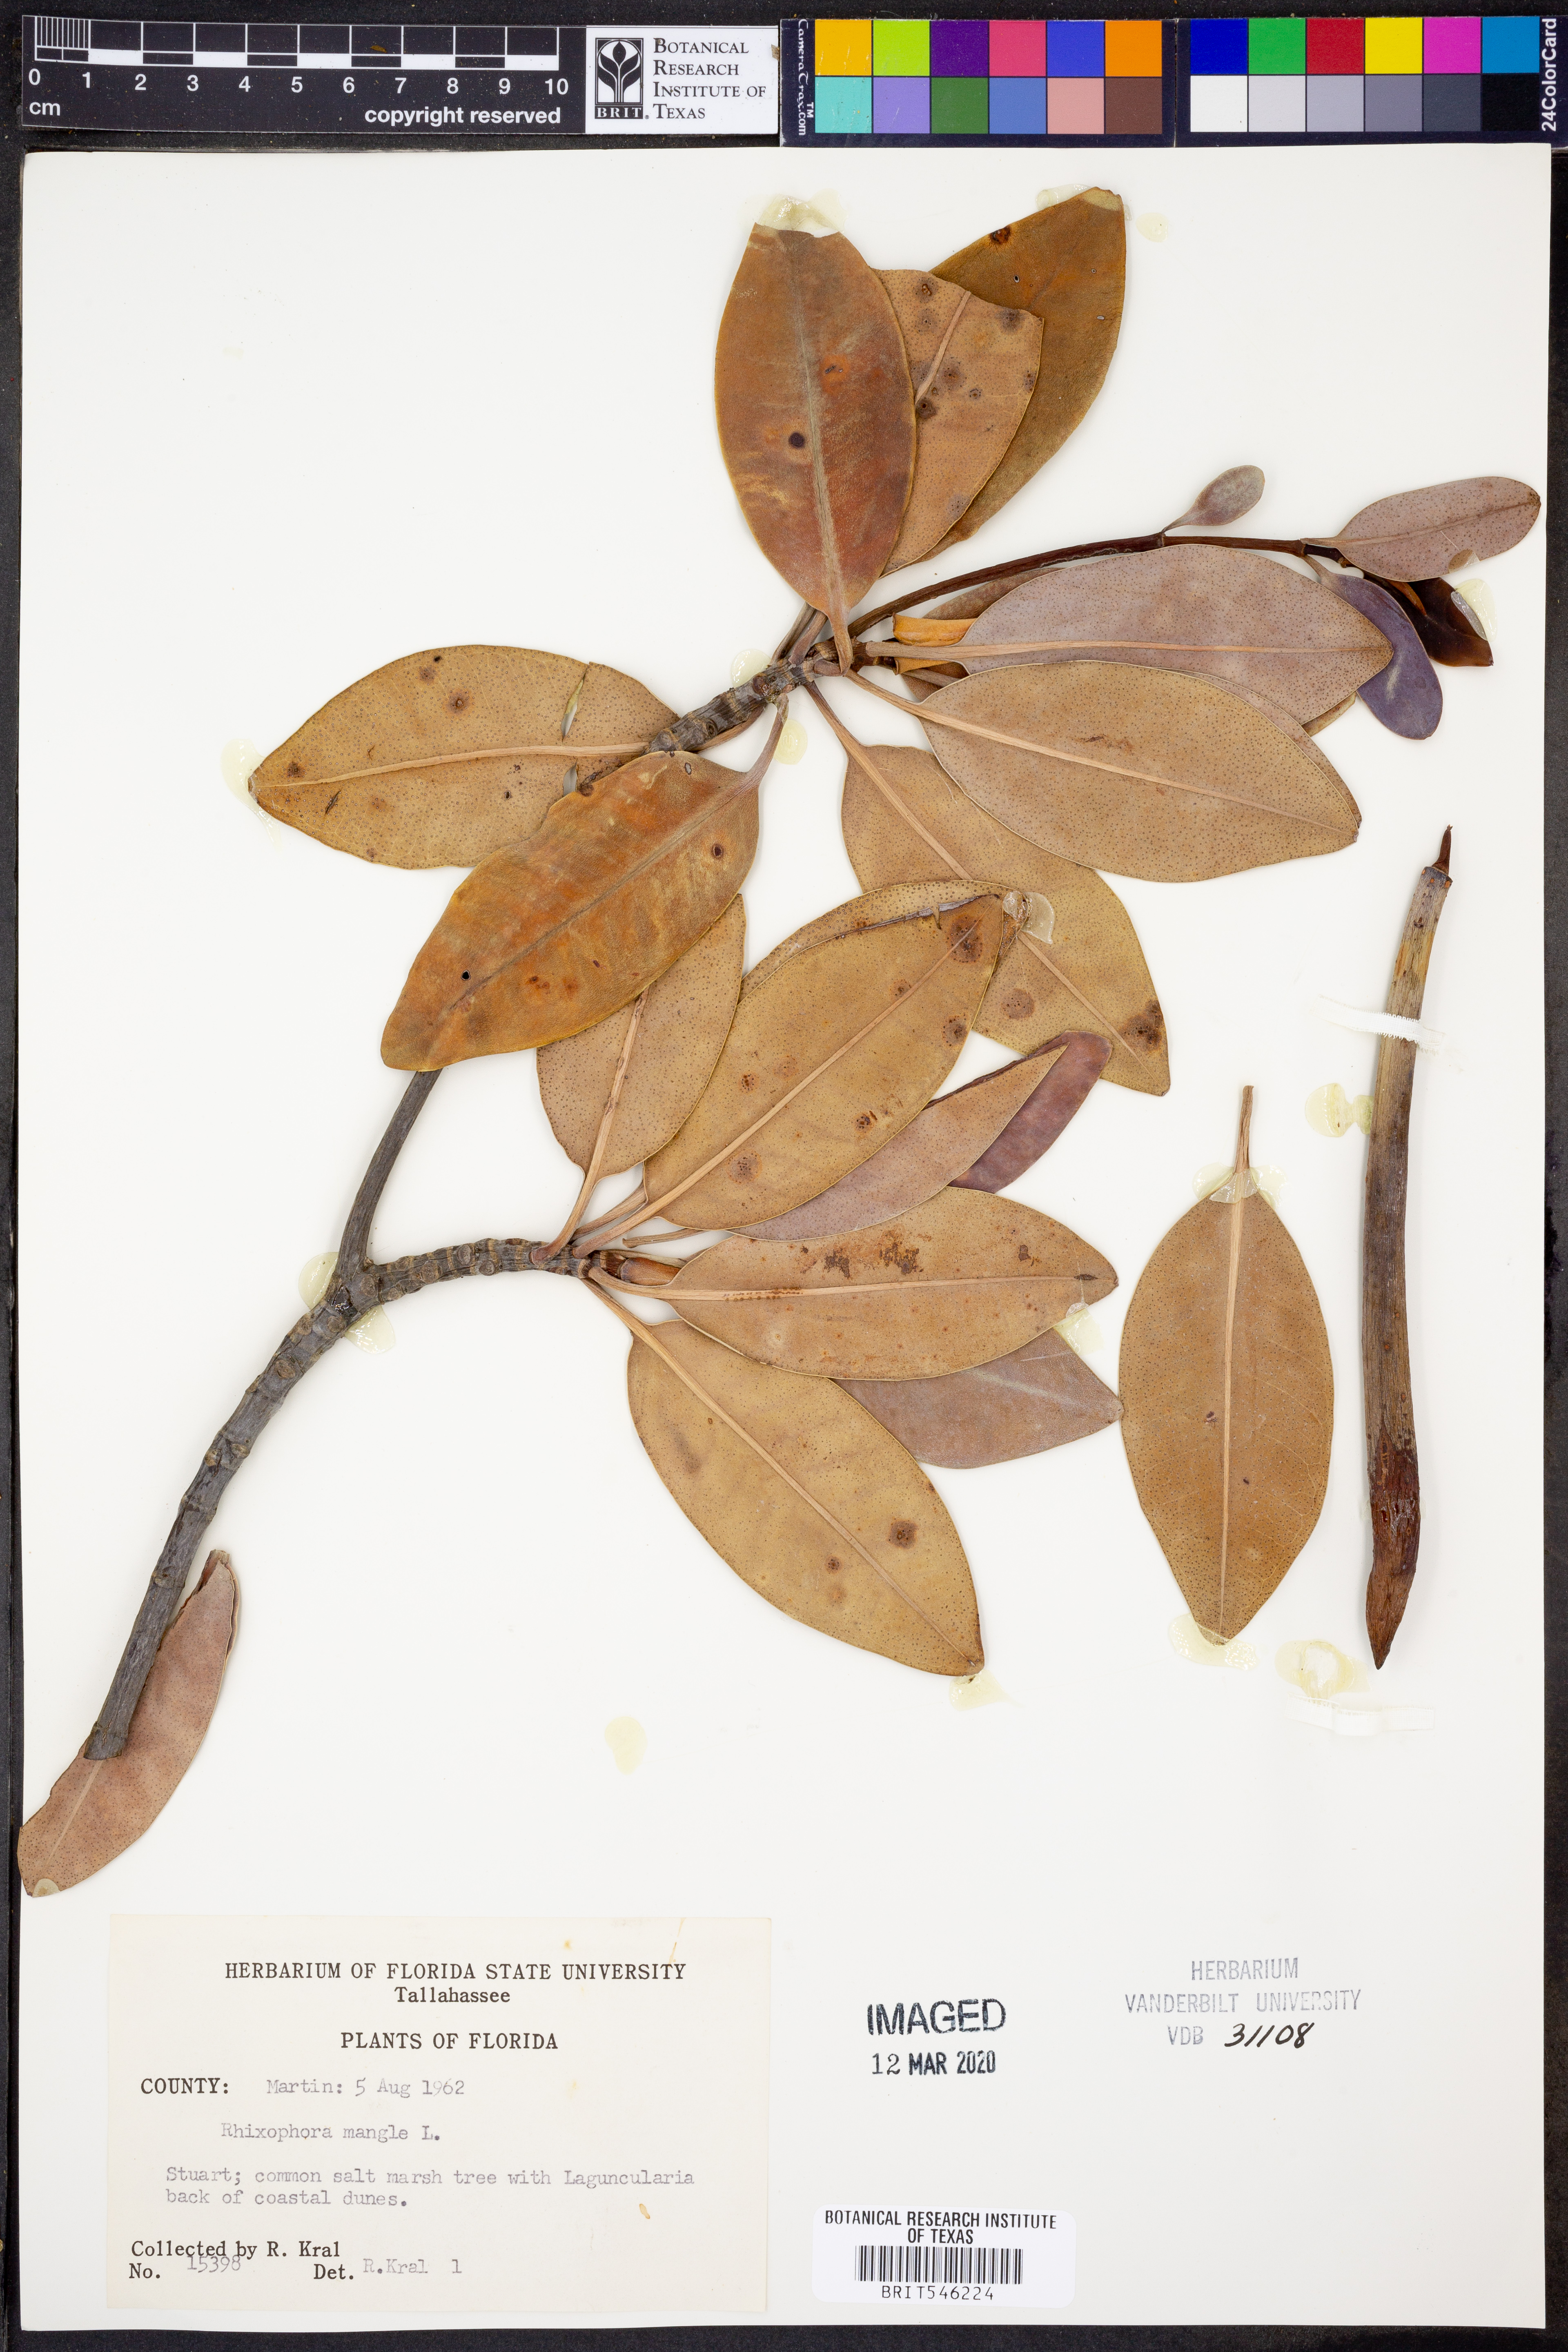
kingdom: Plantae
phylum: Tracheophyta
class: Magnoliopsida
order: Malpighiales
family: Rhizophoraceae
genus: Rhizophora
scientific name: Rhizophora mucronata
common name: Loop-root mangrove
